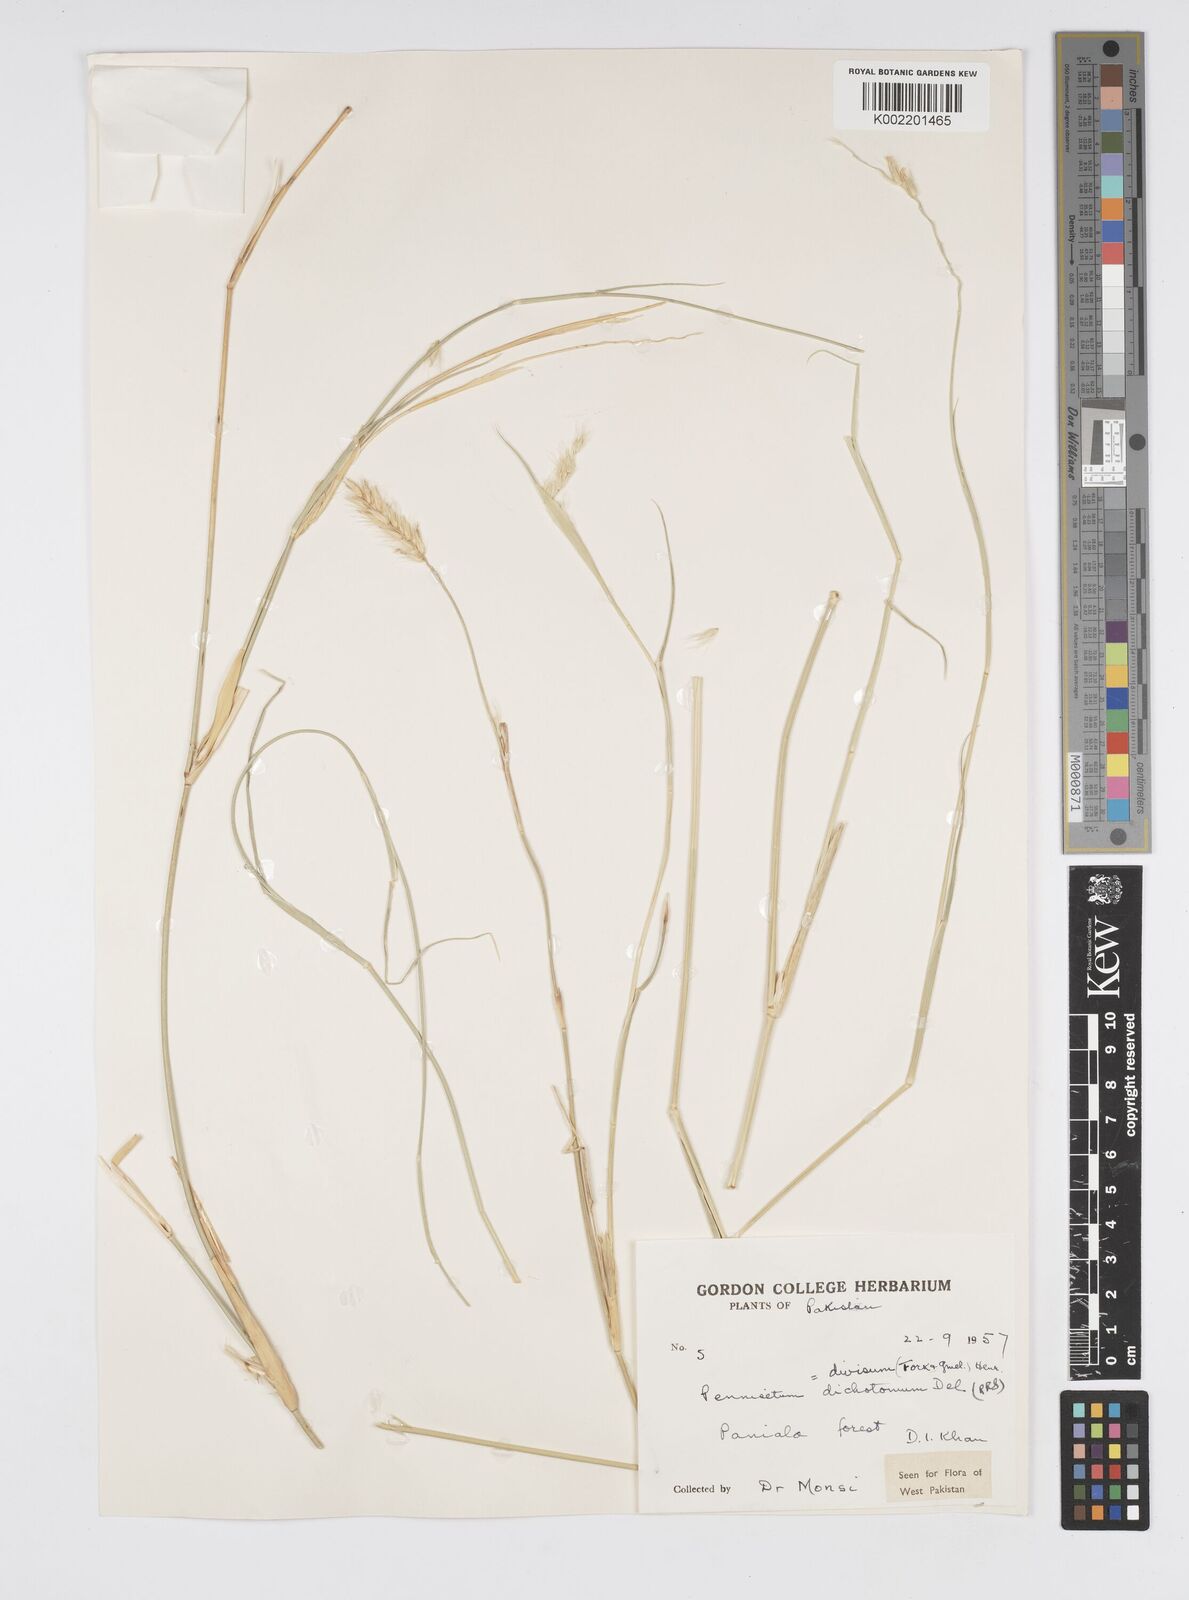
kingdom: Plantae
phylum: Tracheophyta
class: Liliopsida
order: Poales
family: Poaceae
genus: Cenchrus
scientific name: Cenchrus divisus
